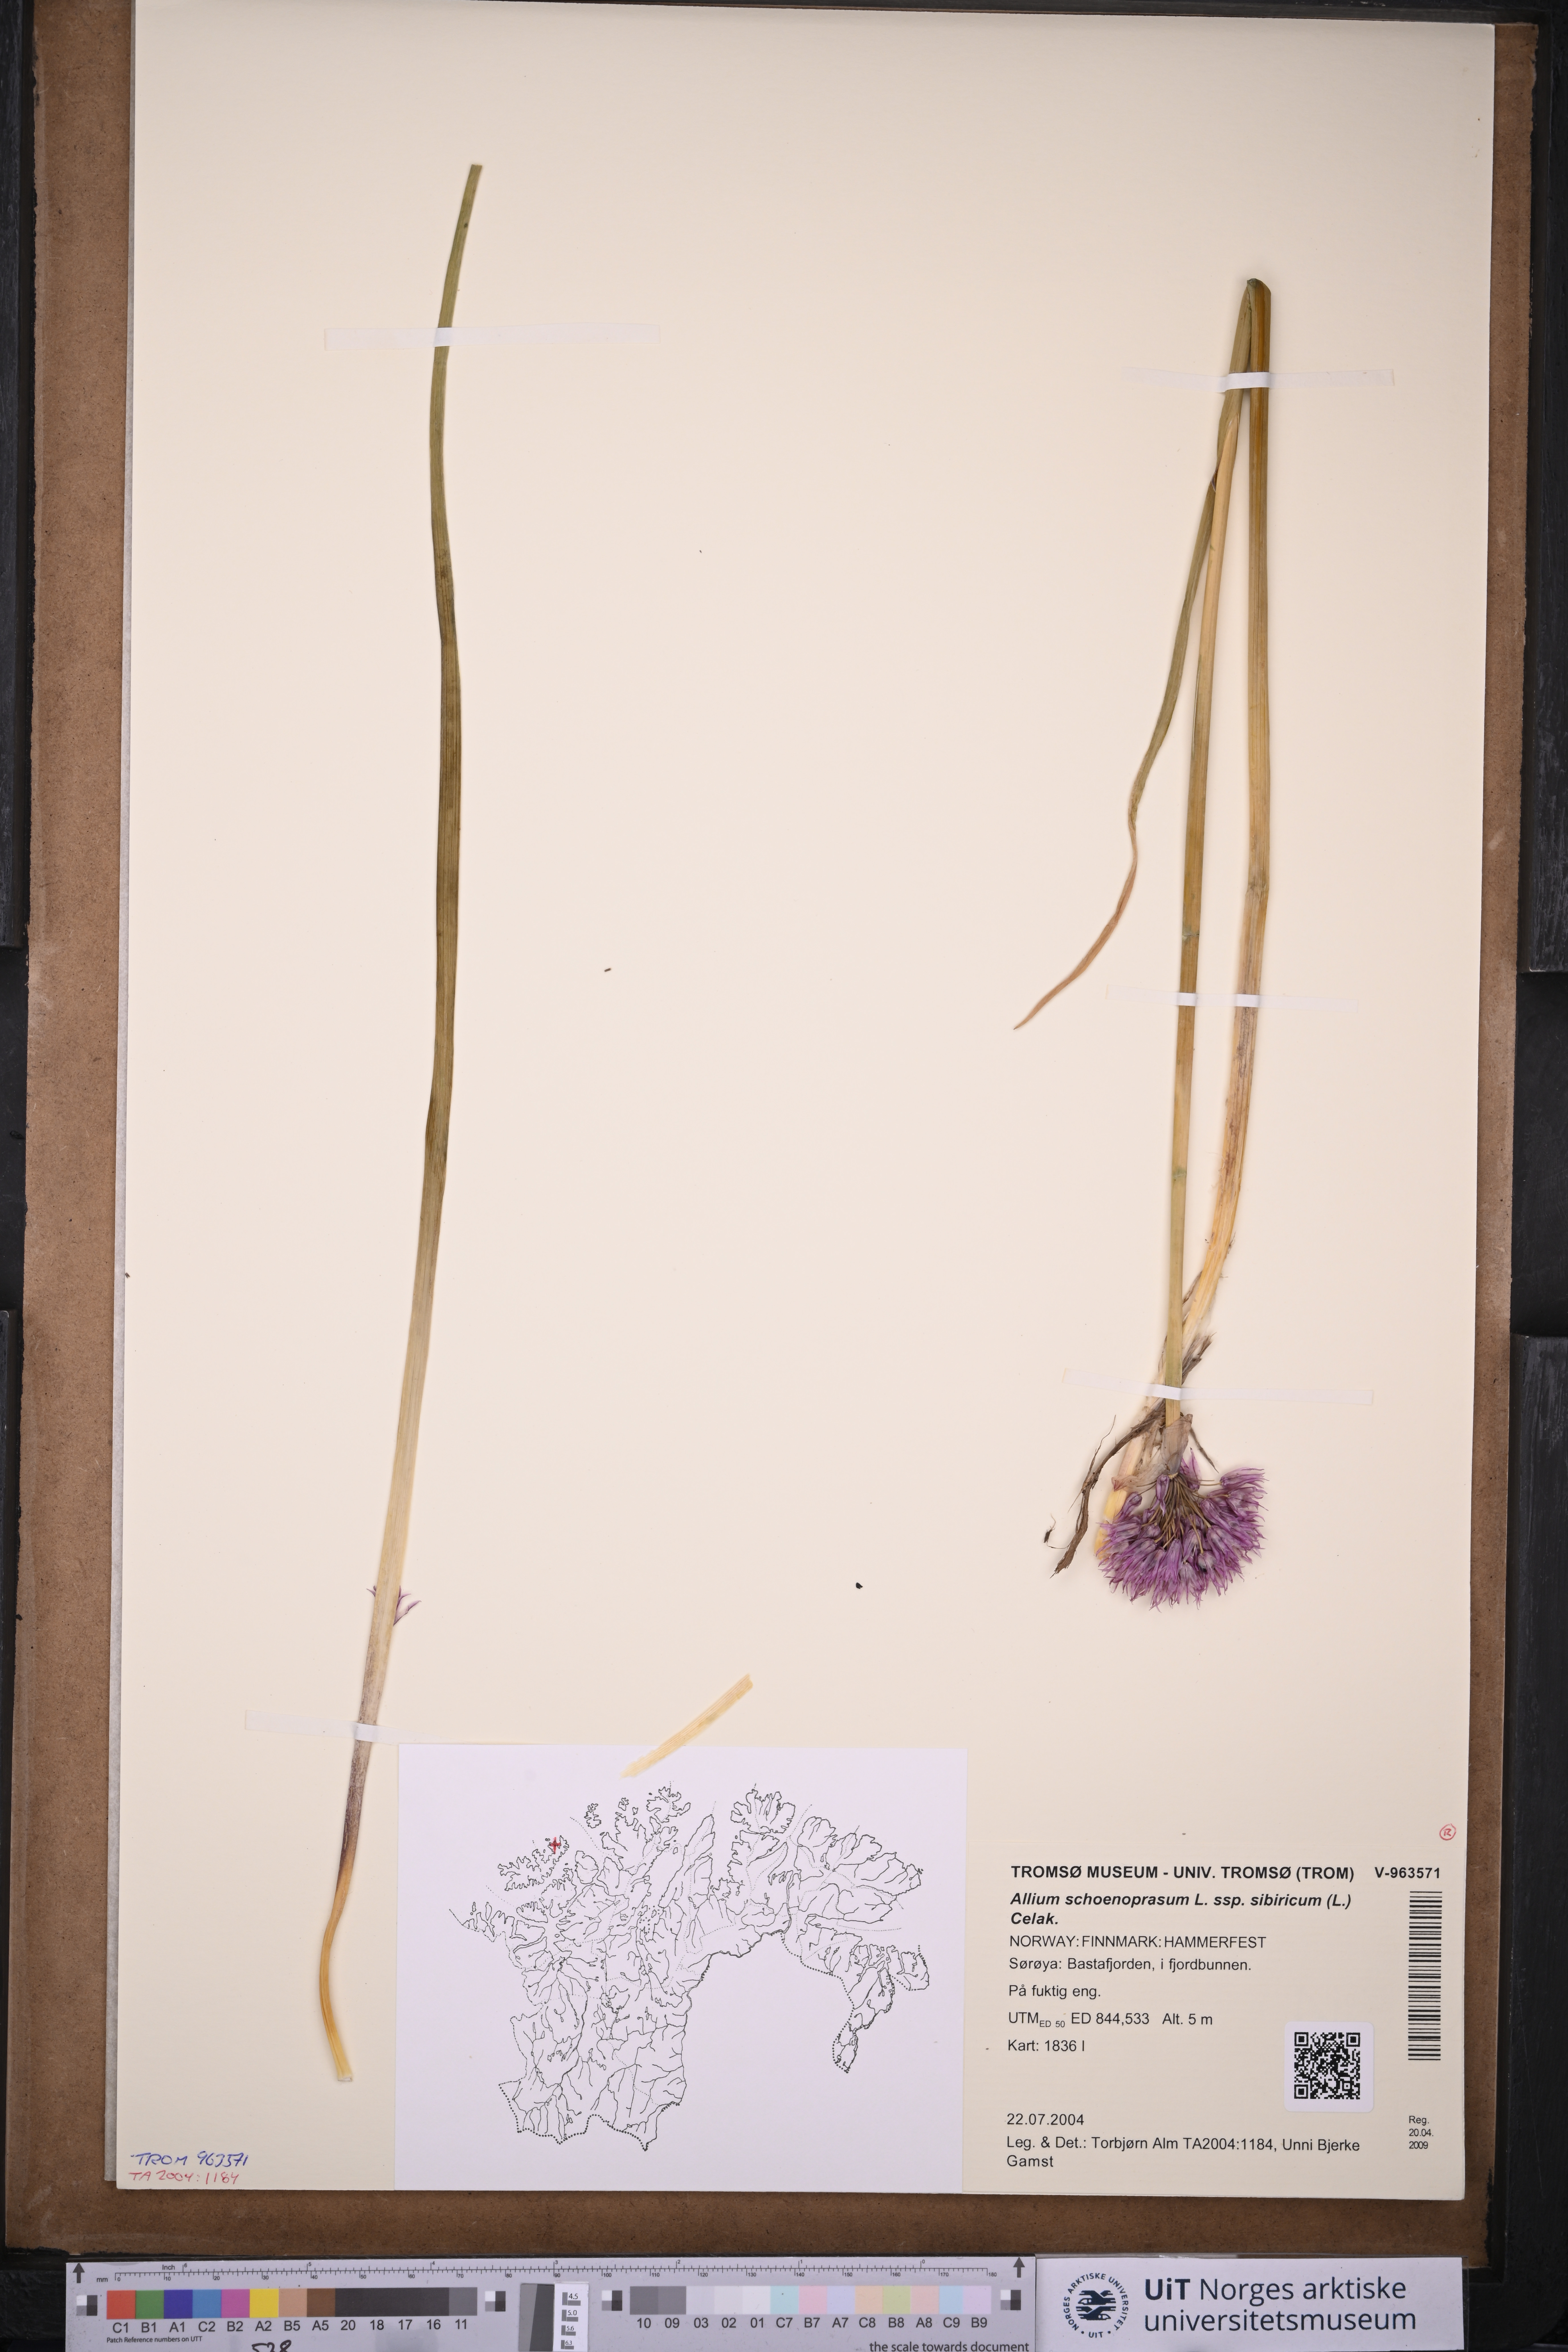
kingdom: Plantae
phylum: Tracheophyta
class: Liliopsida
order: Asparagales
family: Amaryllidaceae
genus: Allium
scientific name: Allium schoenoprasum
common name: Chives
